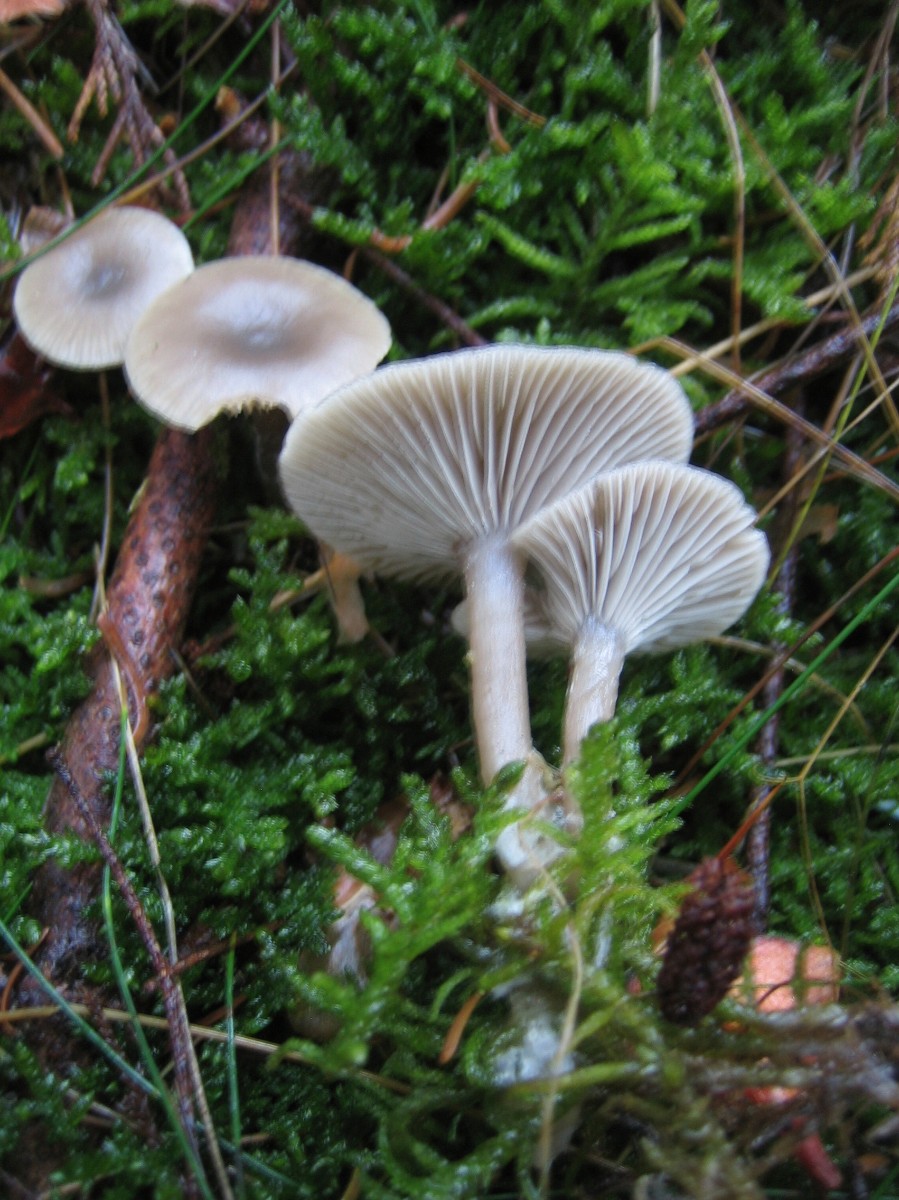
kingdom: Fungi
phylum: Basidiomycota
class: Agaricomycetes
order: Agaricales
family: Pseudoclitocybaceae
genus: Pseudoclitocybe
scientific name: Pseudoclitocybe cyathiformis
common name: almindelig bægertragthat
